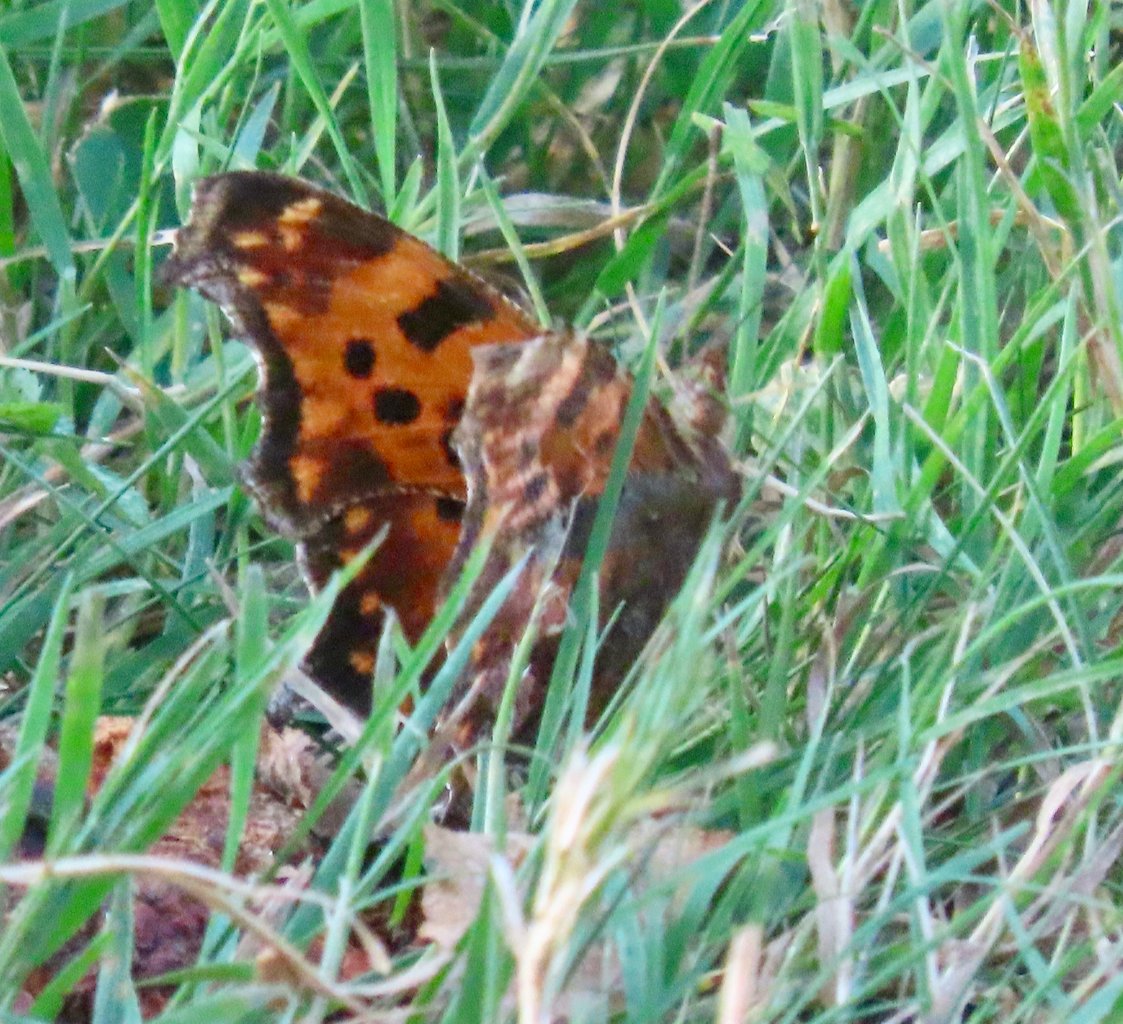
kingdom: Animalia
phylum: Arthropoda
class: Insecta
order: Lepidoptera
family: Nymphalidae
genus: Polygonia
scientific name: Polygonia comma
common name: Eastern Comma
